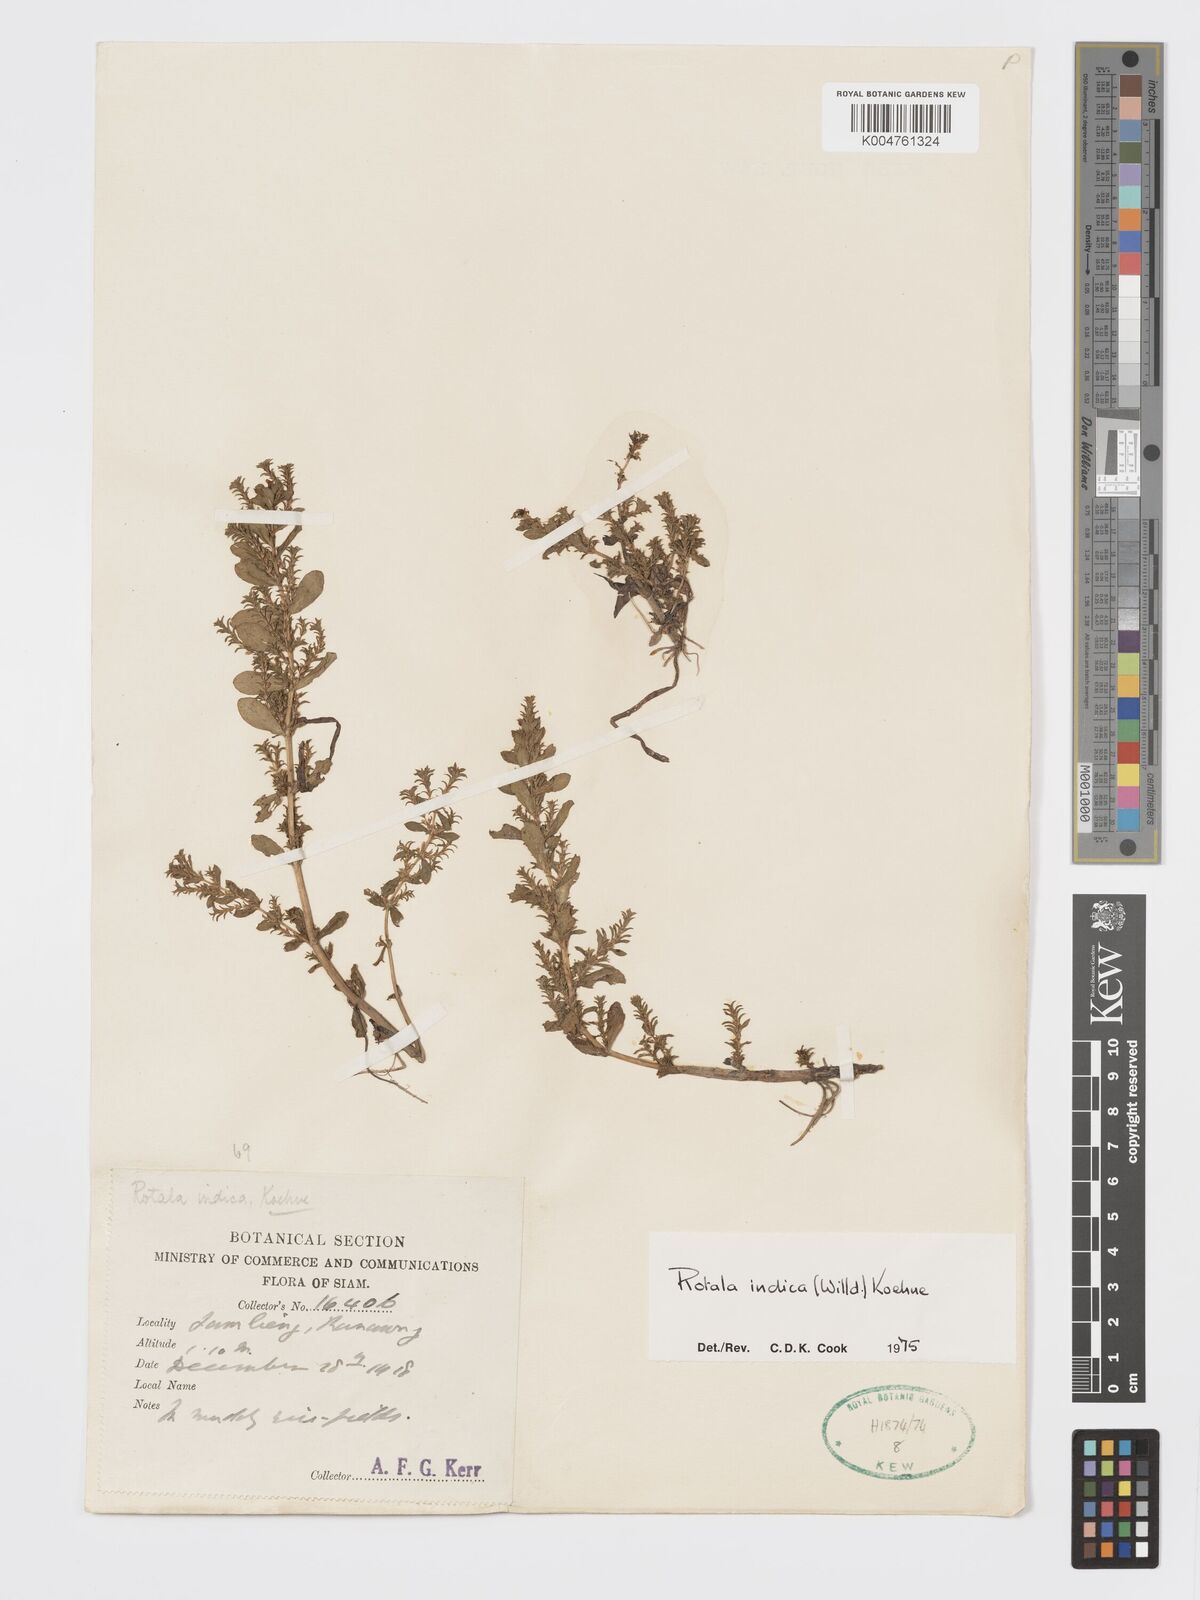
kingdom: Plantae
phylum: Tracheophyta
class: Magnoliopsida
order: Myrtales
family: Lythraceae
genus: Rotala
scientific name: Rotala indica
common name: Indian toothcup
